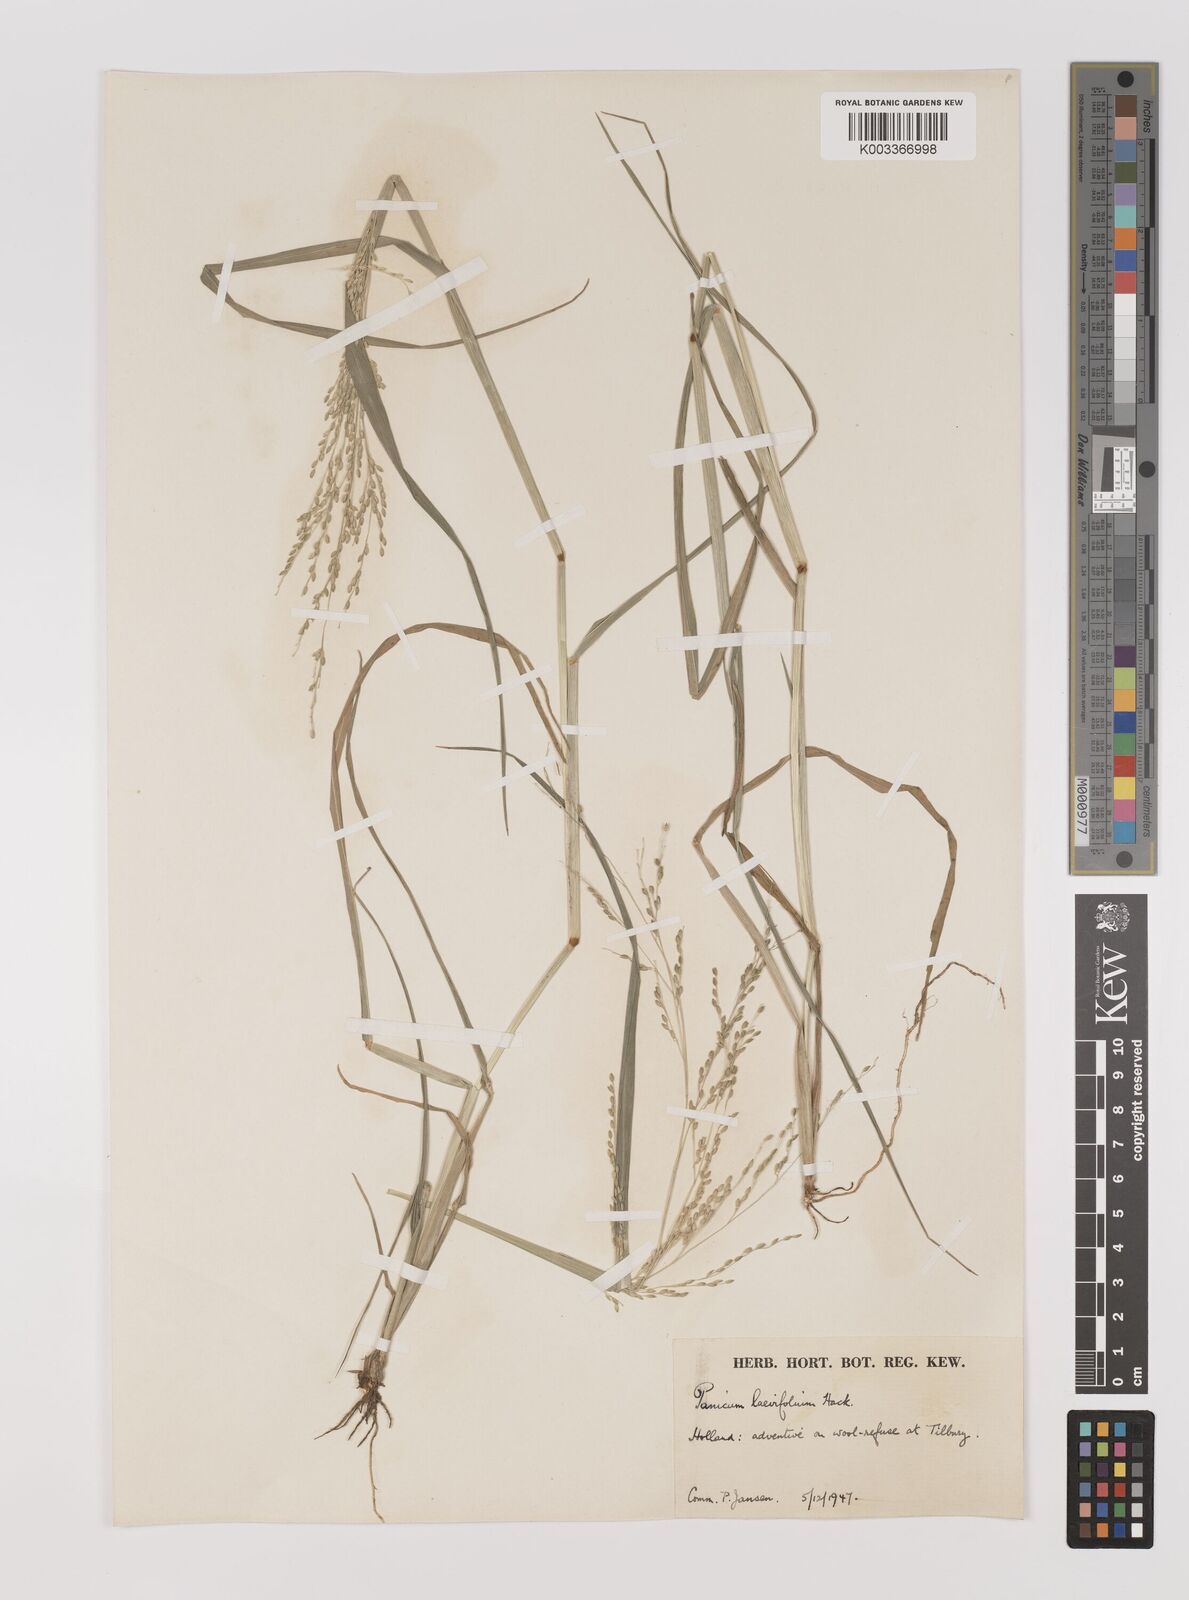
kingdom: Plantae
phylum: Tracheophyta
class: Liliopsida
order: Poales
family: Poaceae
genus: Panicum
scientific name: Panicum schinzii
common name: Sweet grass
